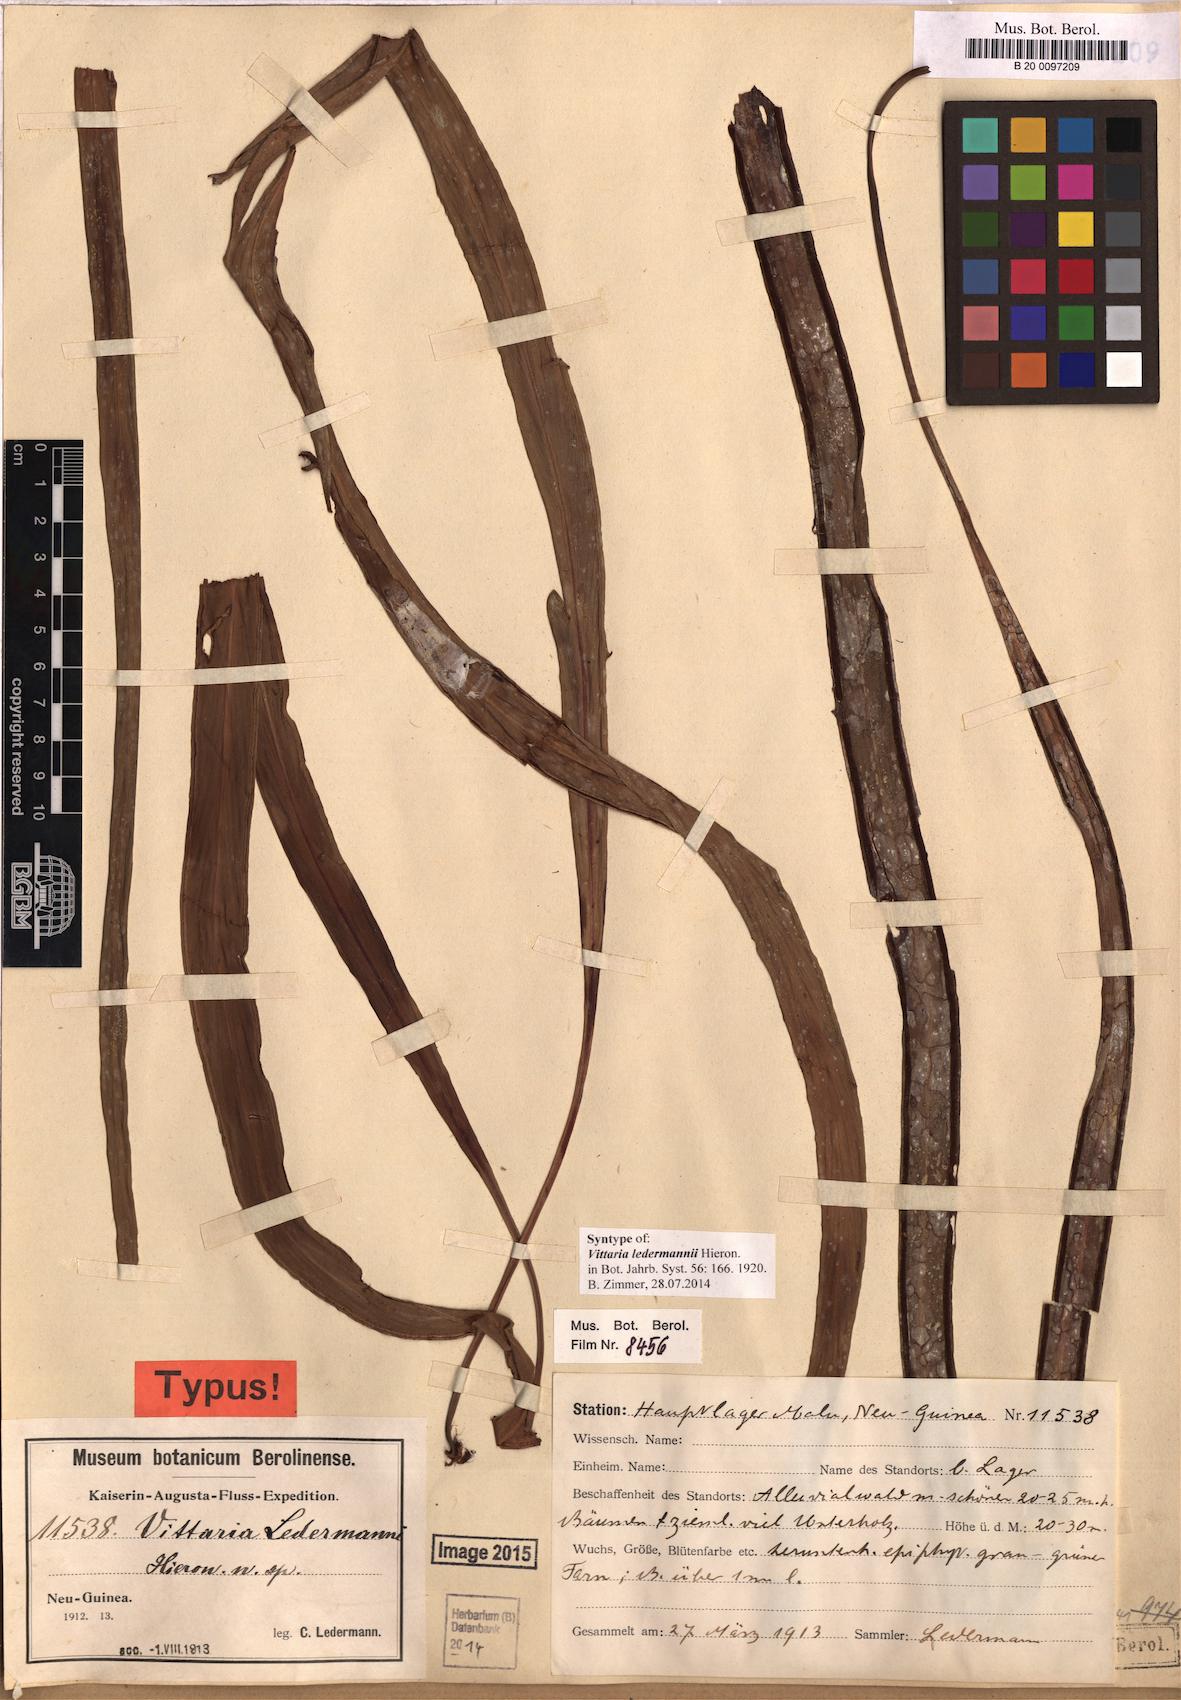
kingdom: Plantae
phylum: Tracheophyta
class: Polypodiopsida
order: Polypodiales
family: Pteridaceae
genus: Haplopteris
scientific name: Haplopteris elongata
